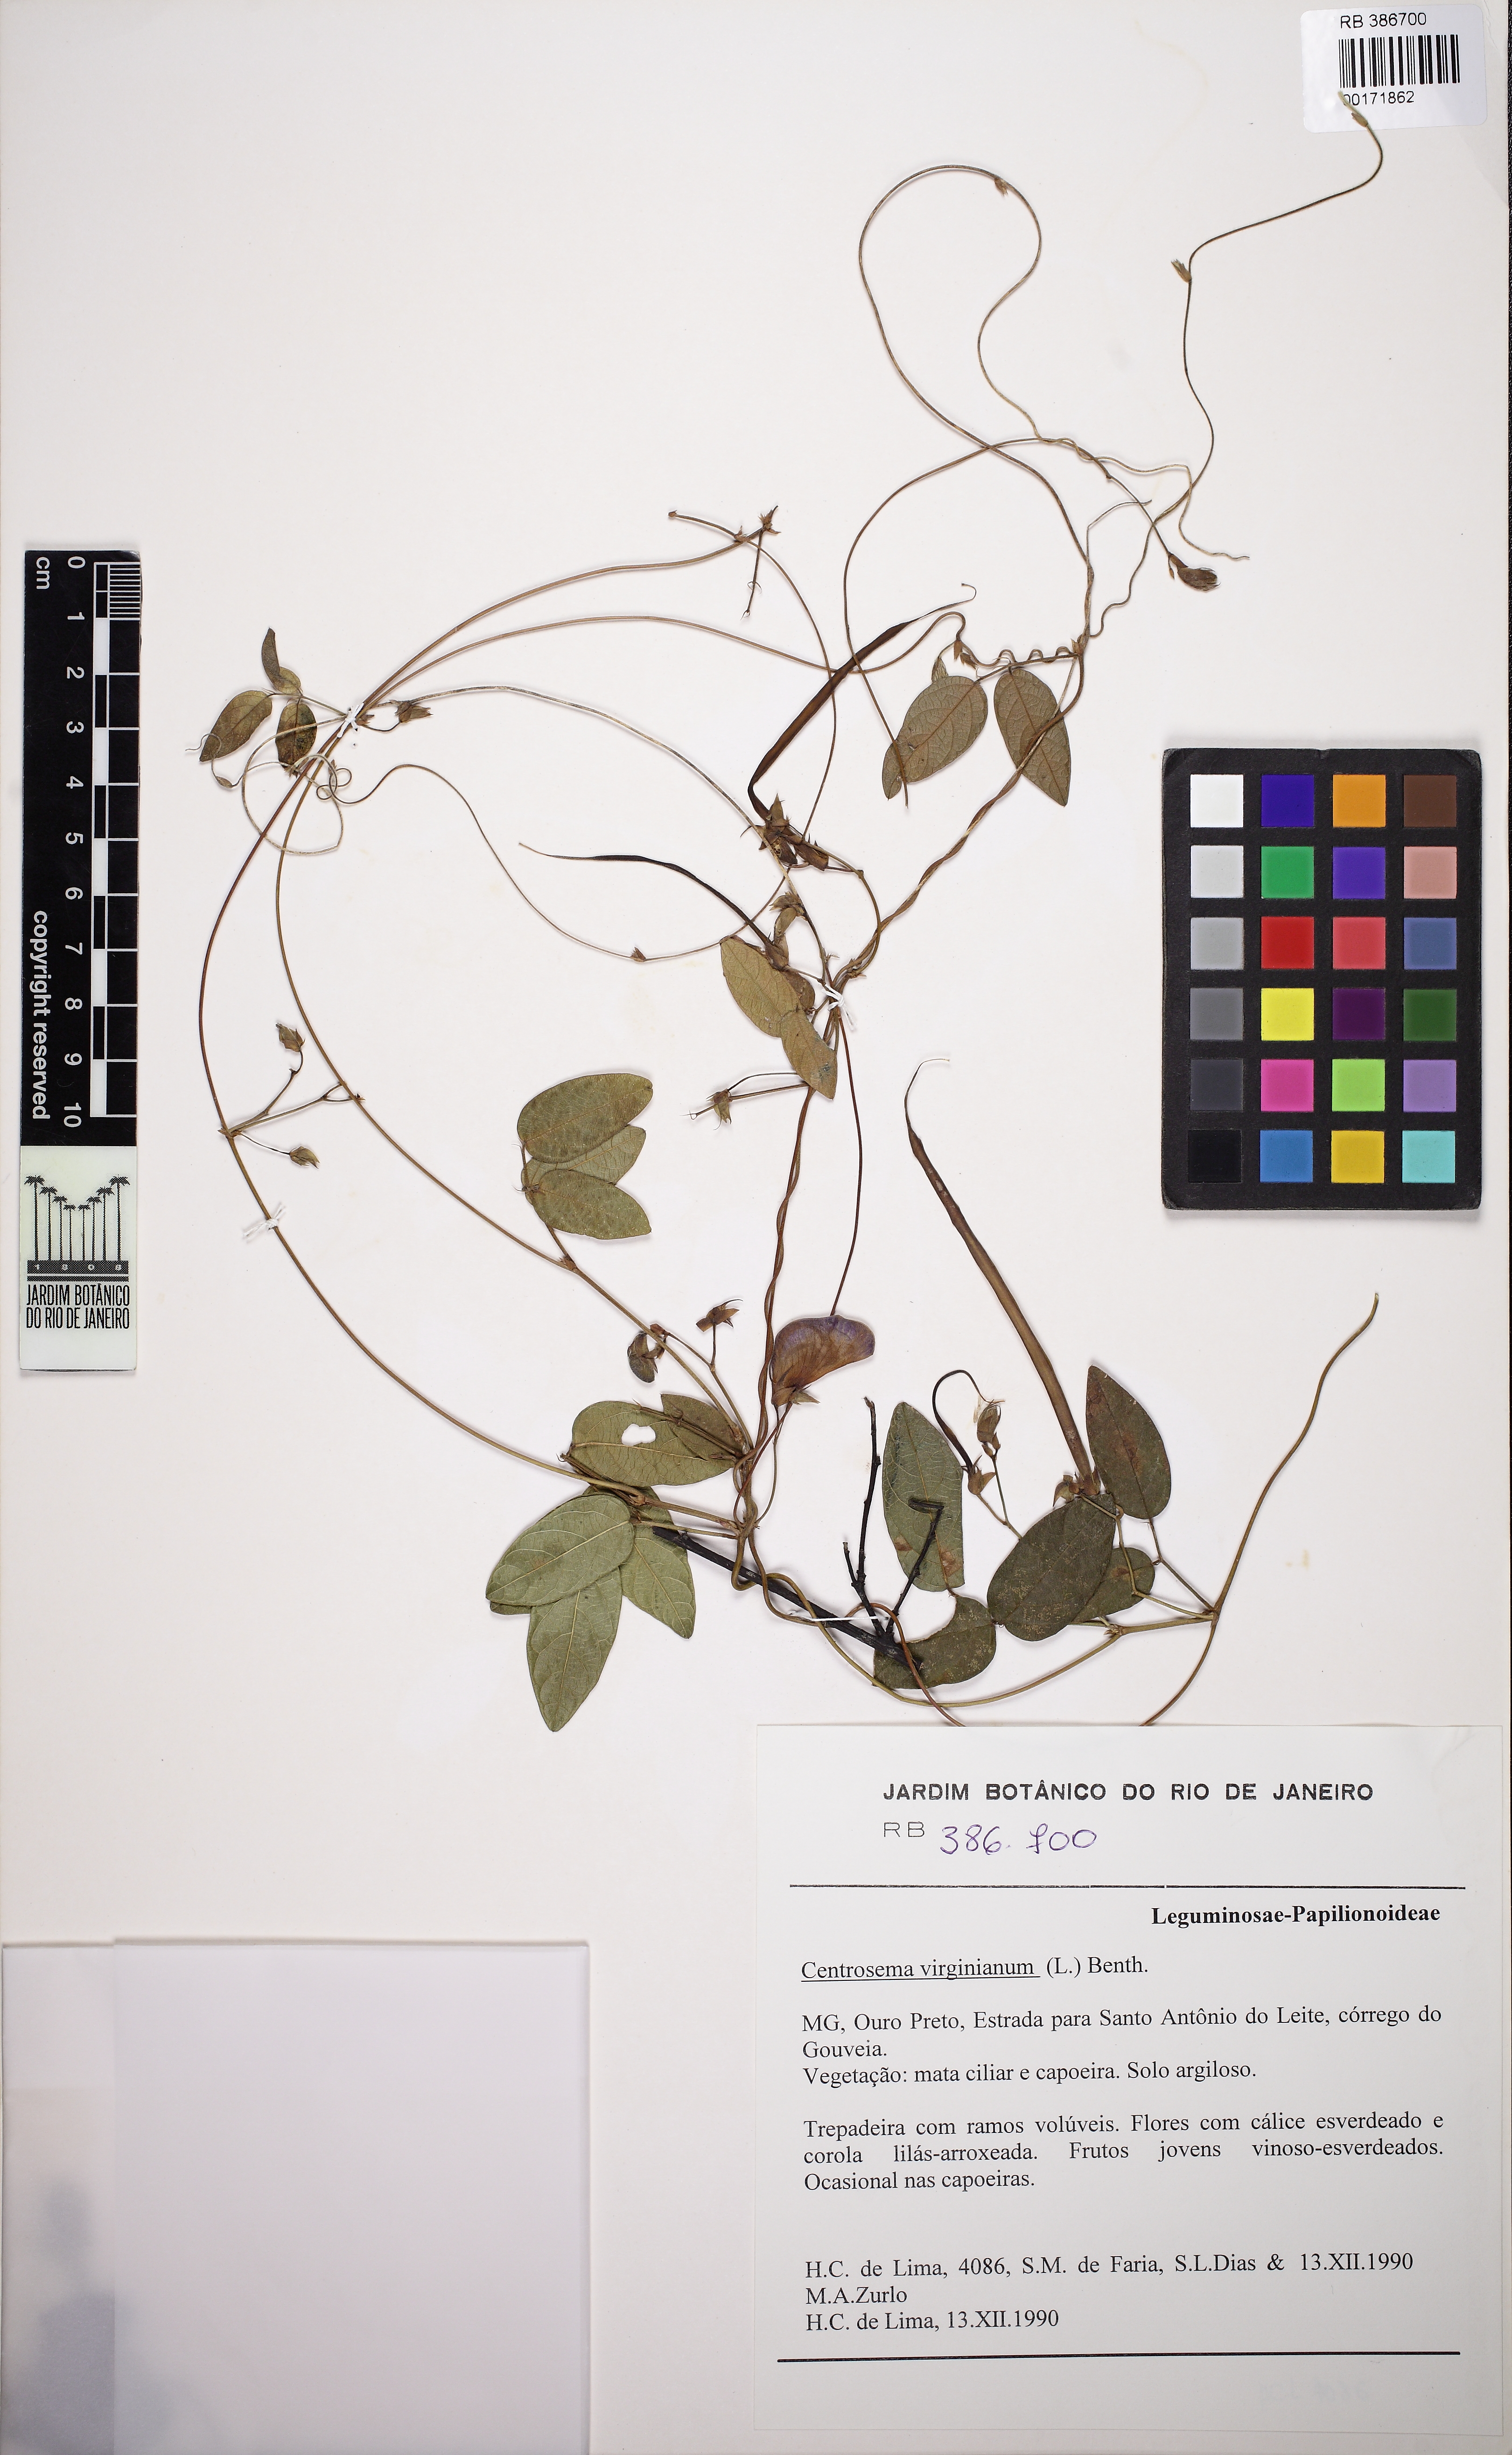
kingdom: Plantae
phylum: Tracheophyta
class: Magnoliopsida
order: Fabales
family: Fabaceae
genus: Centrosema
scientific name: Centrosema virginianum
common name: Butterfly-pea
